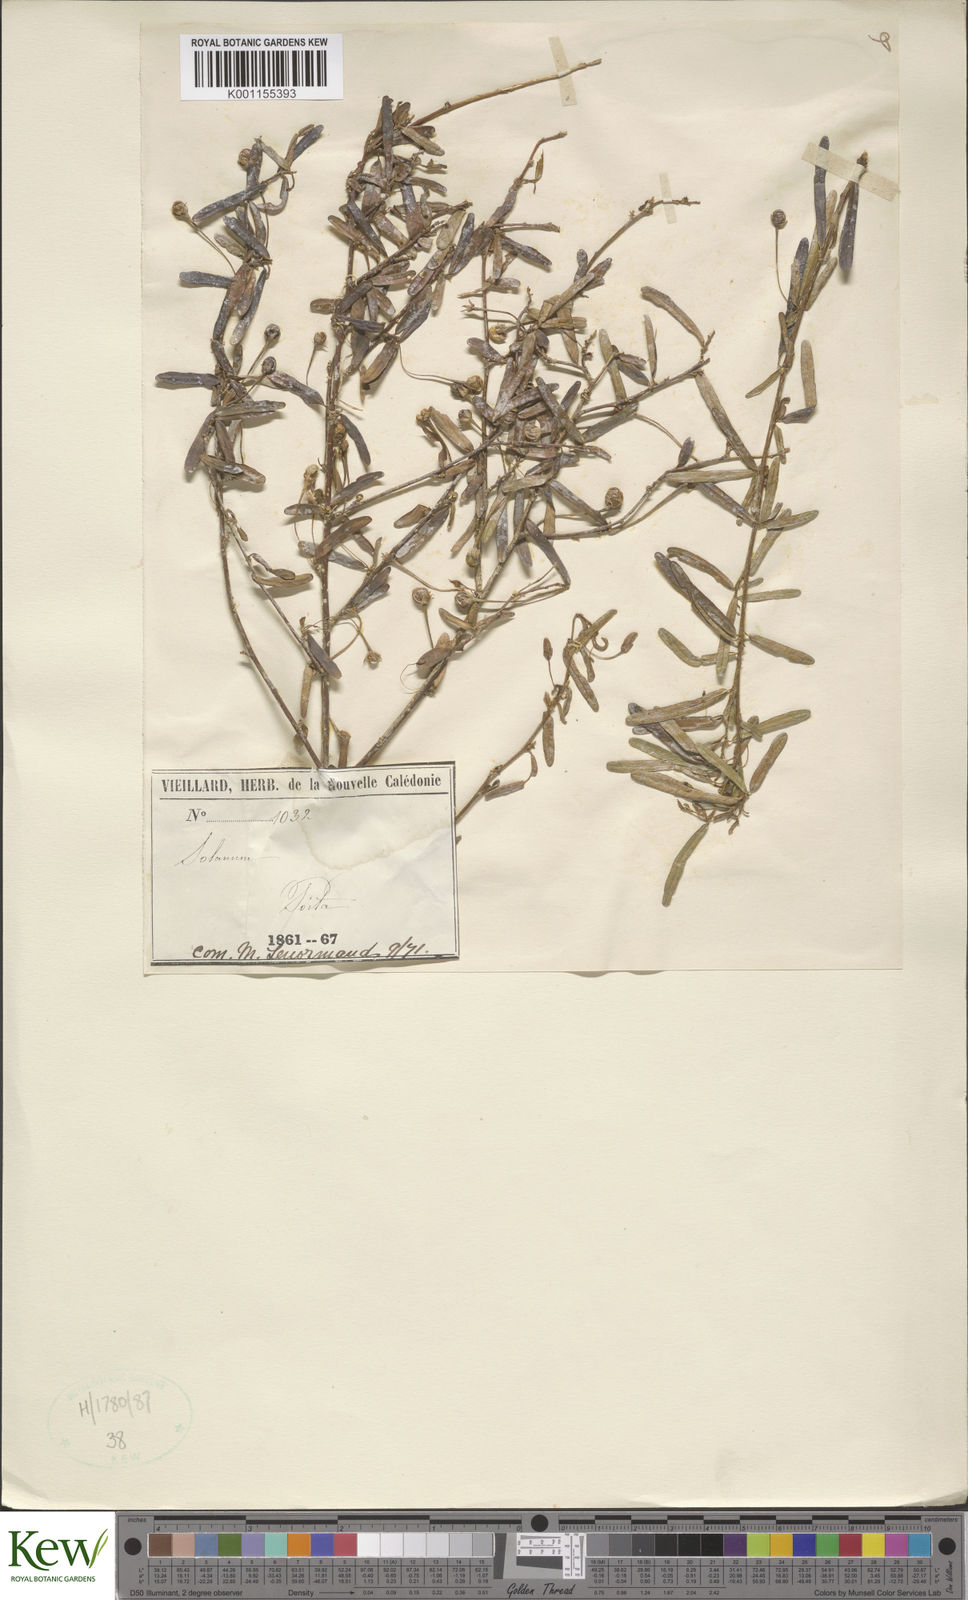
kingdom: Plantae
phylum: Tracheophyta
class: Magnoliopsida
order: Solanales
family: Solanaceae
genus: Solanum
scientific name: Solanum pancheri
